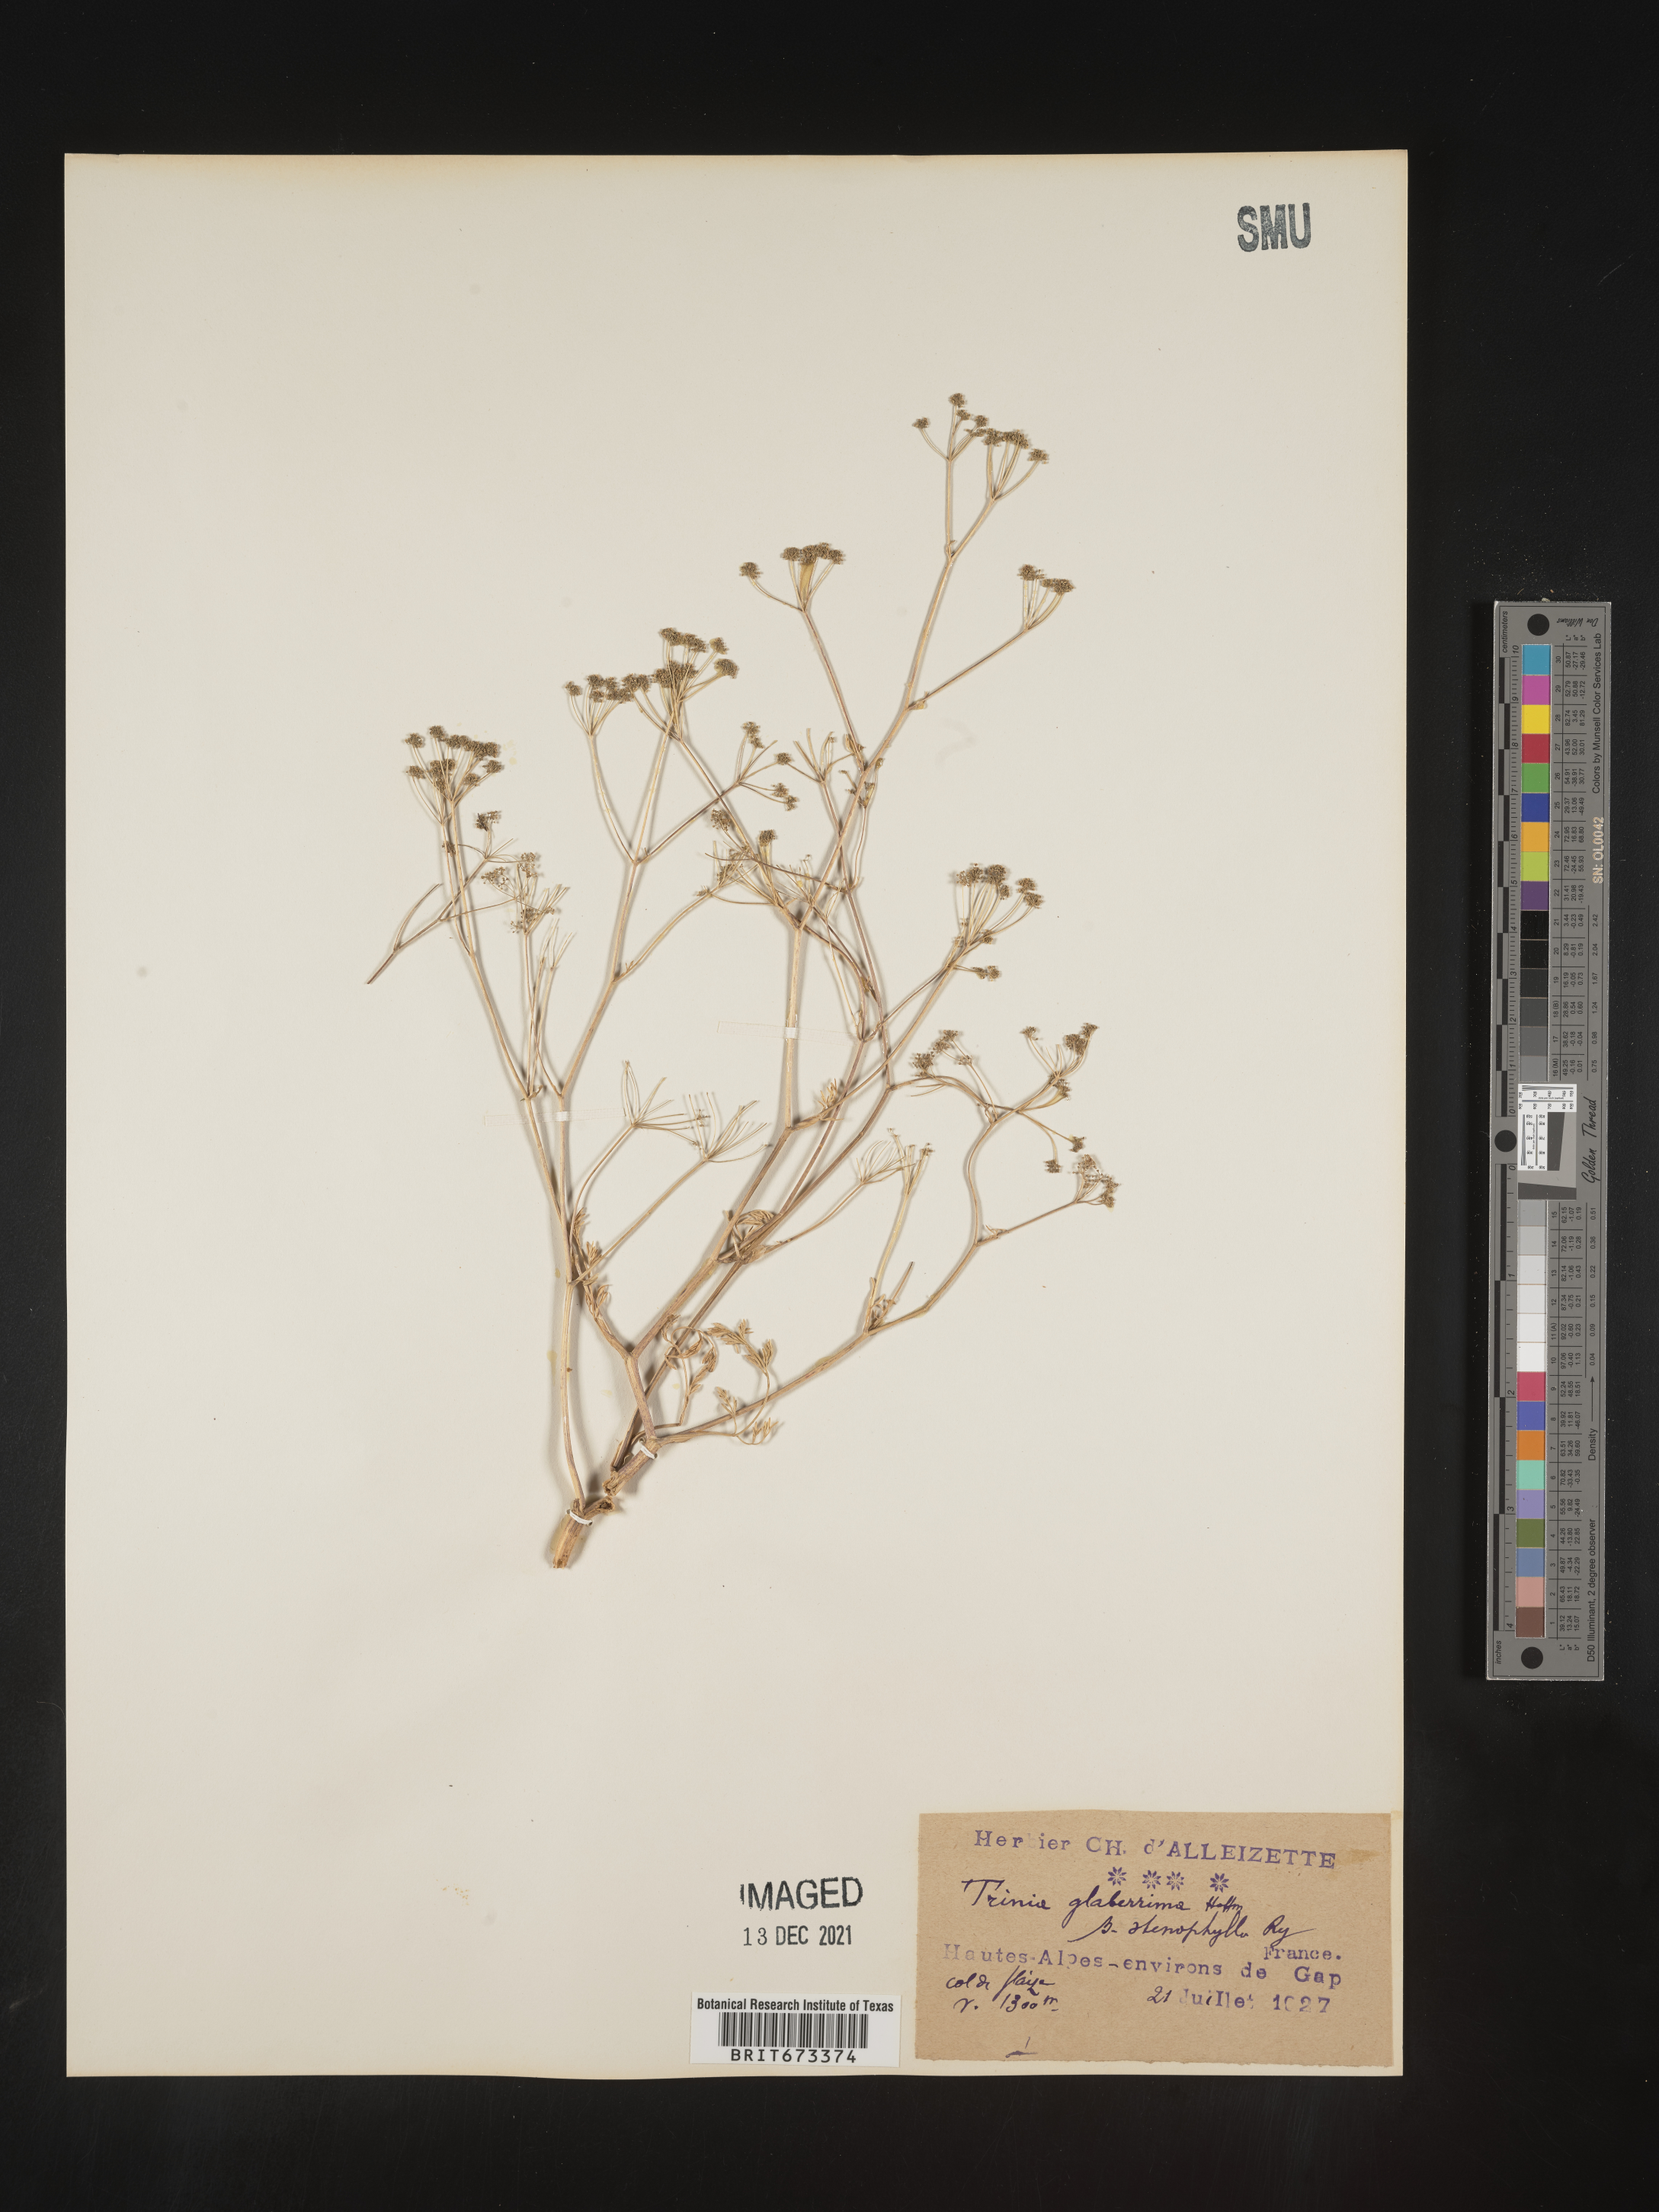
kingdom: Plantae
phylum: Tracheophyta
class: Magnoliopsida
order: Apiales
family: Apiaceae
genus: Trinia
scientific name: Trinia
